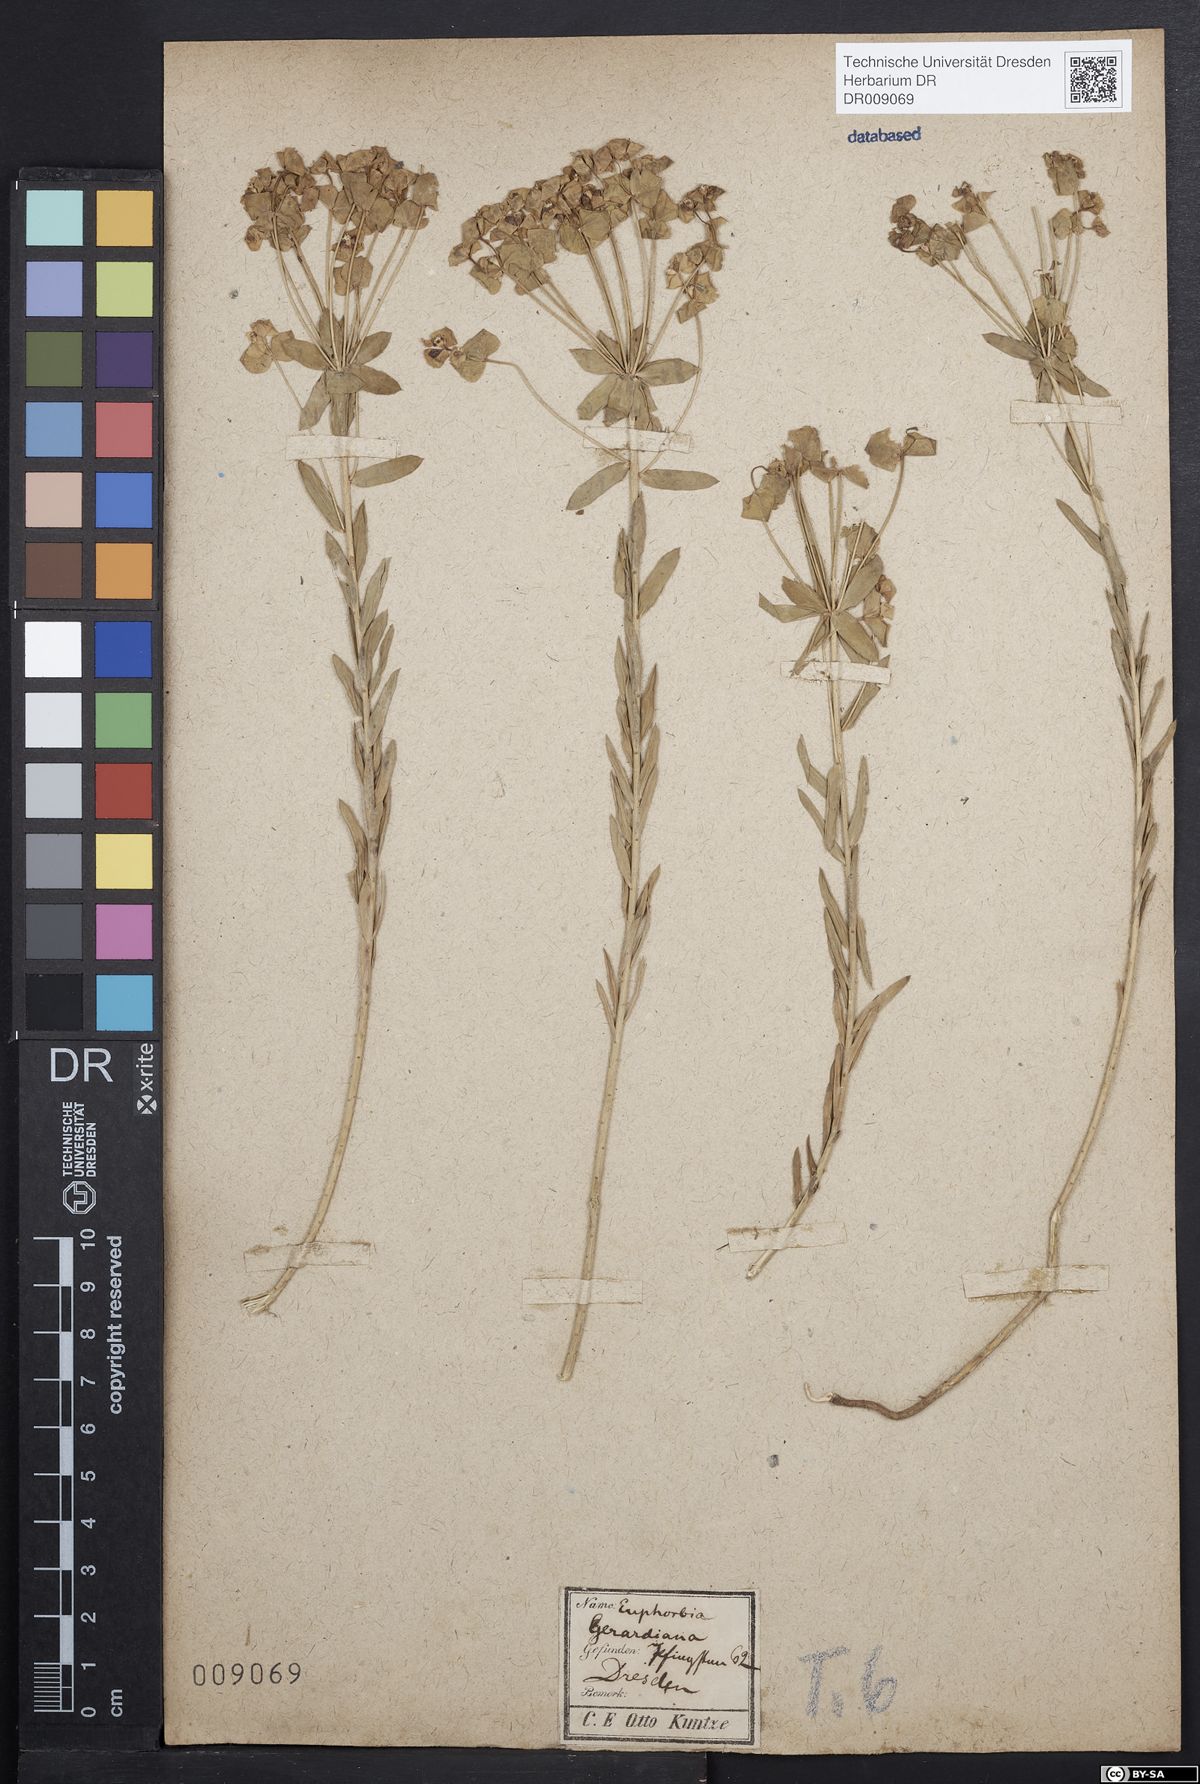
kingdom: Plantae
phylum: Tracheophyta
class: Magnoliopsida
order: Malpighiales
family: Euphorbiaceae
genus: Euphorbia
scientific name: Euphorbia seguieriana
